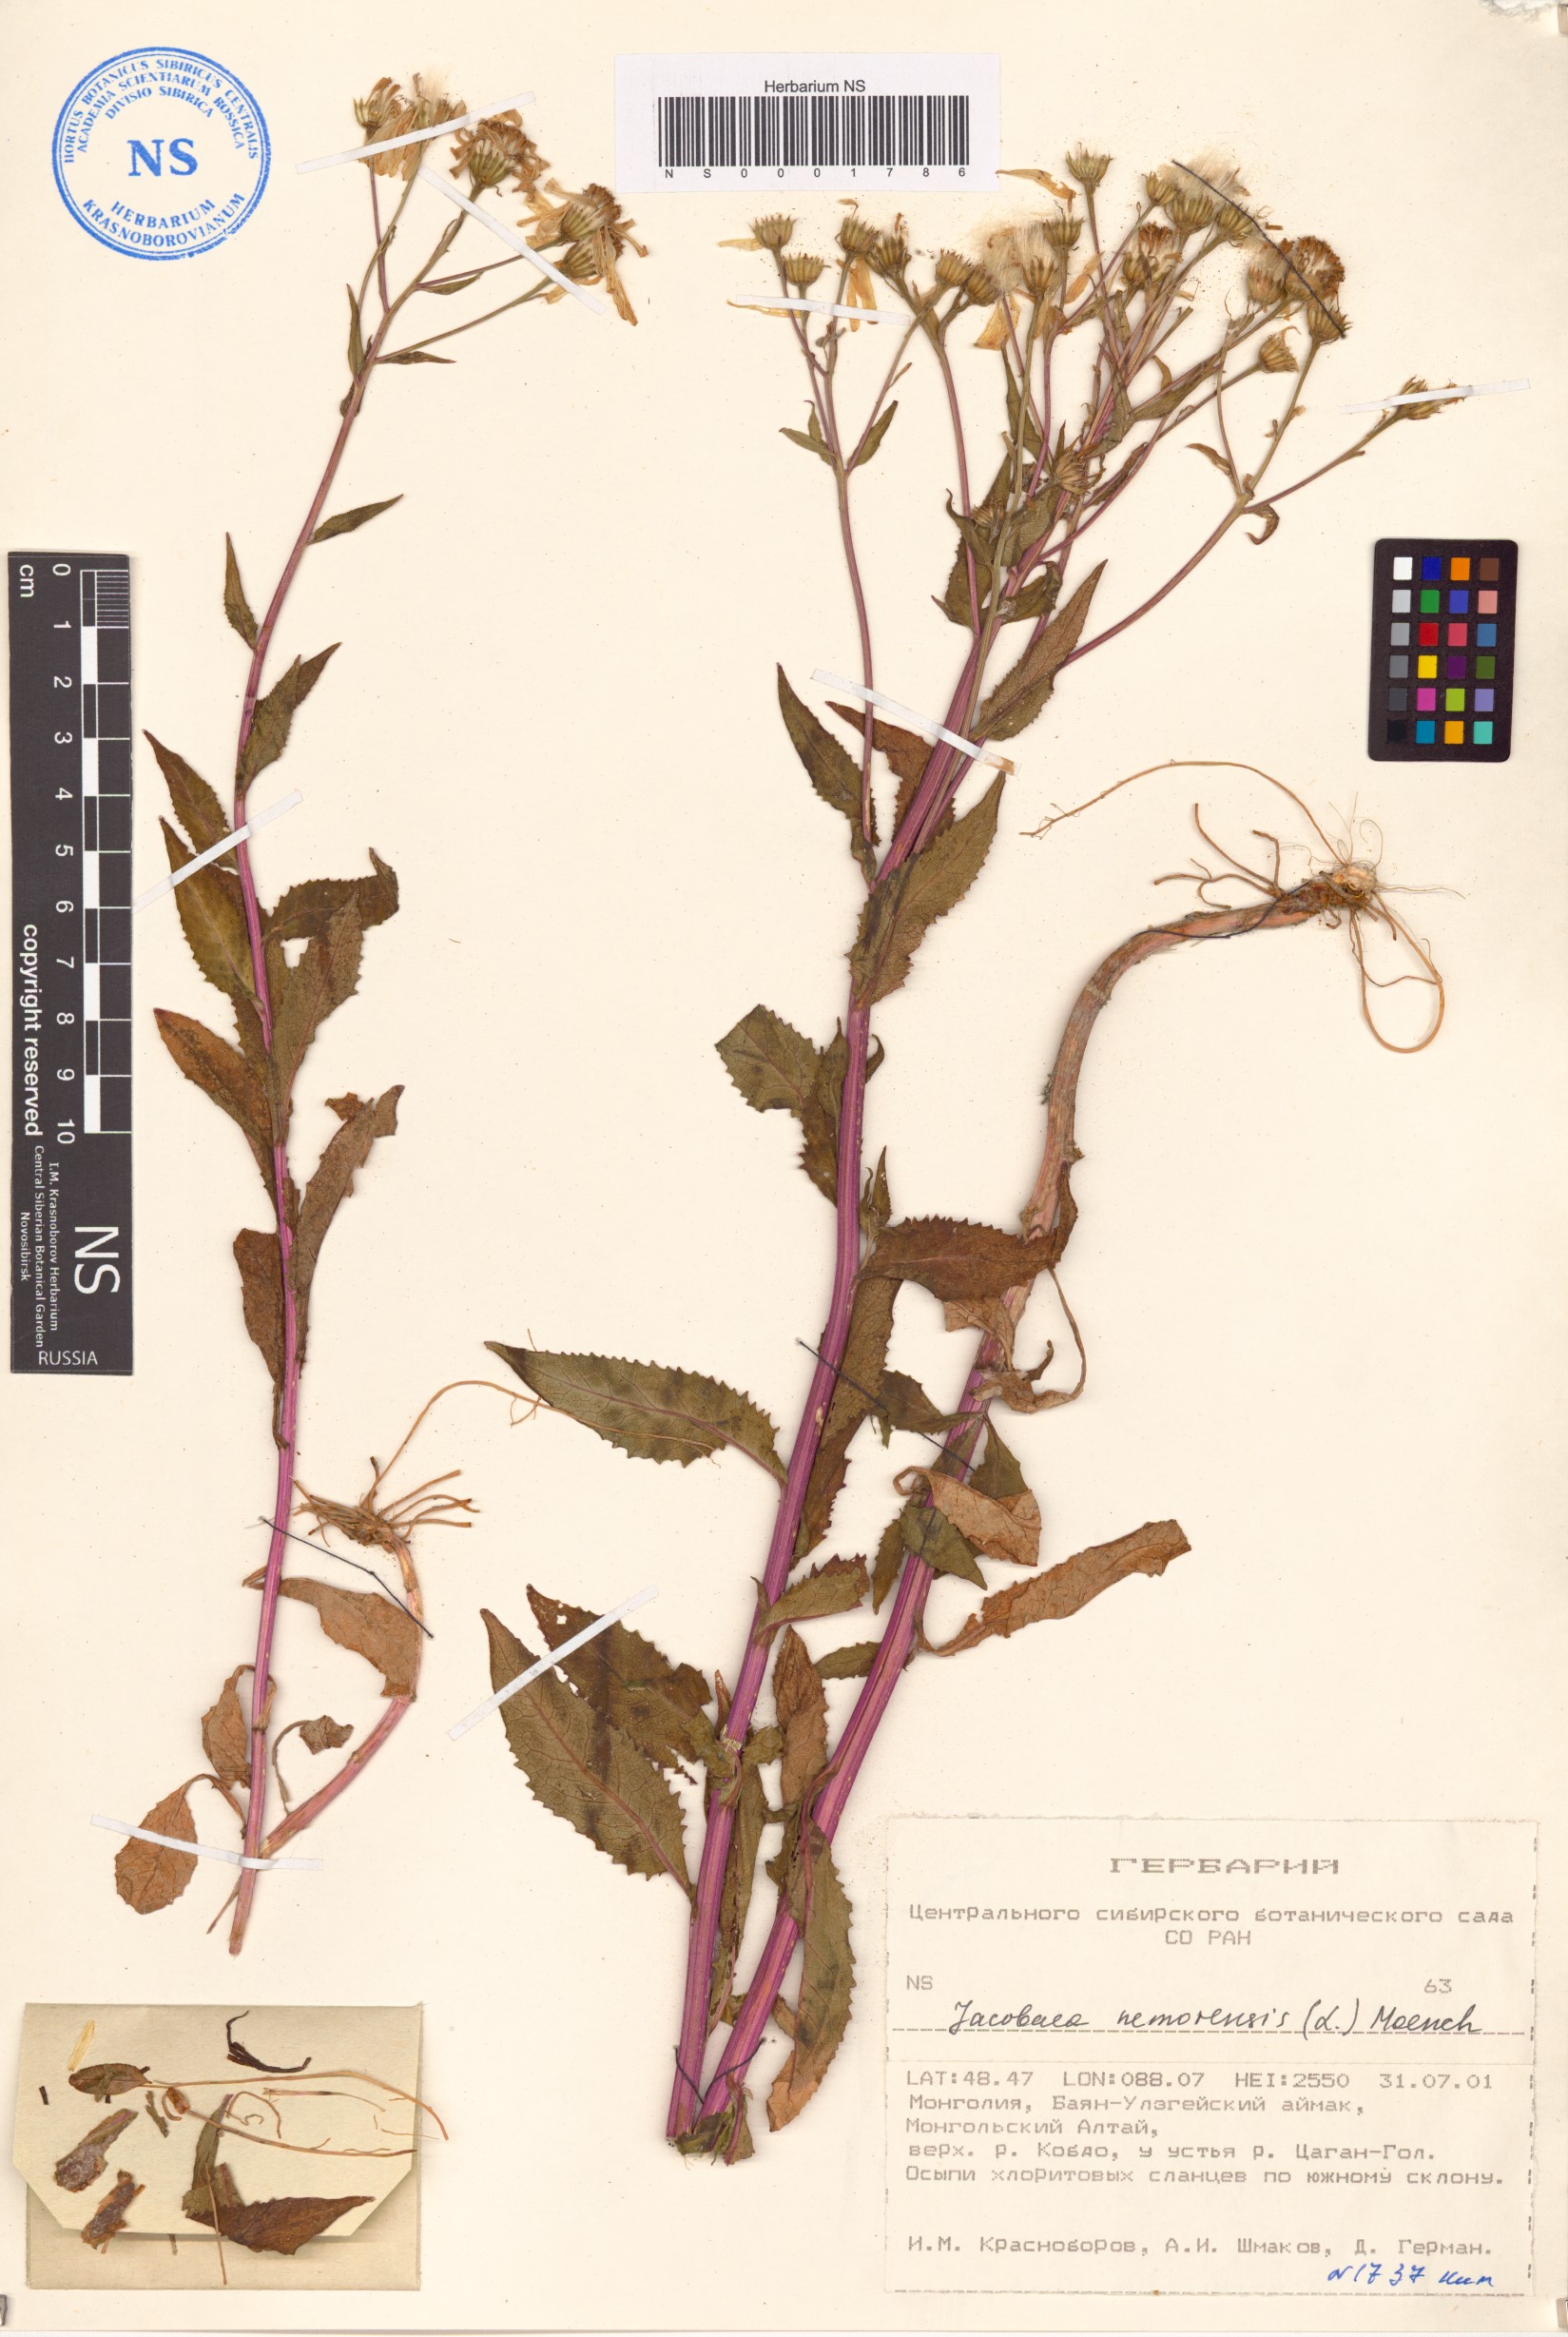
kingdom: Plantae
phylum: Tracheophyta
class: Magnoliopsida
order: Asterales
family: Asteraceae
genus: Senecio
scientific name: Senecio nemorensis
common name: Alpine ragwort
